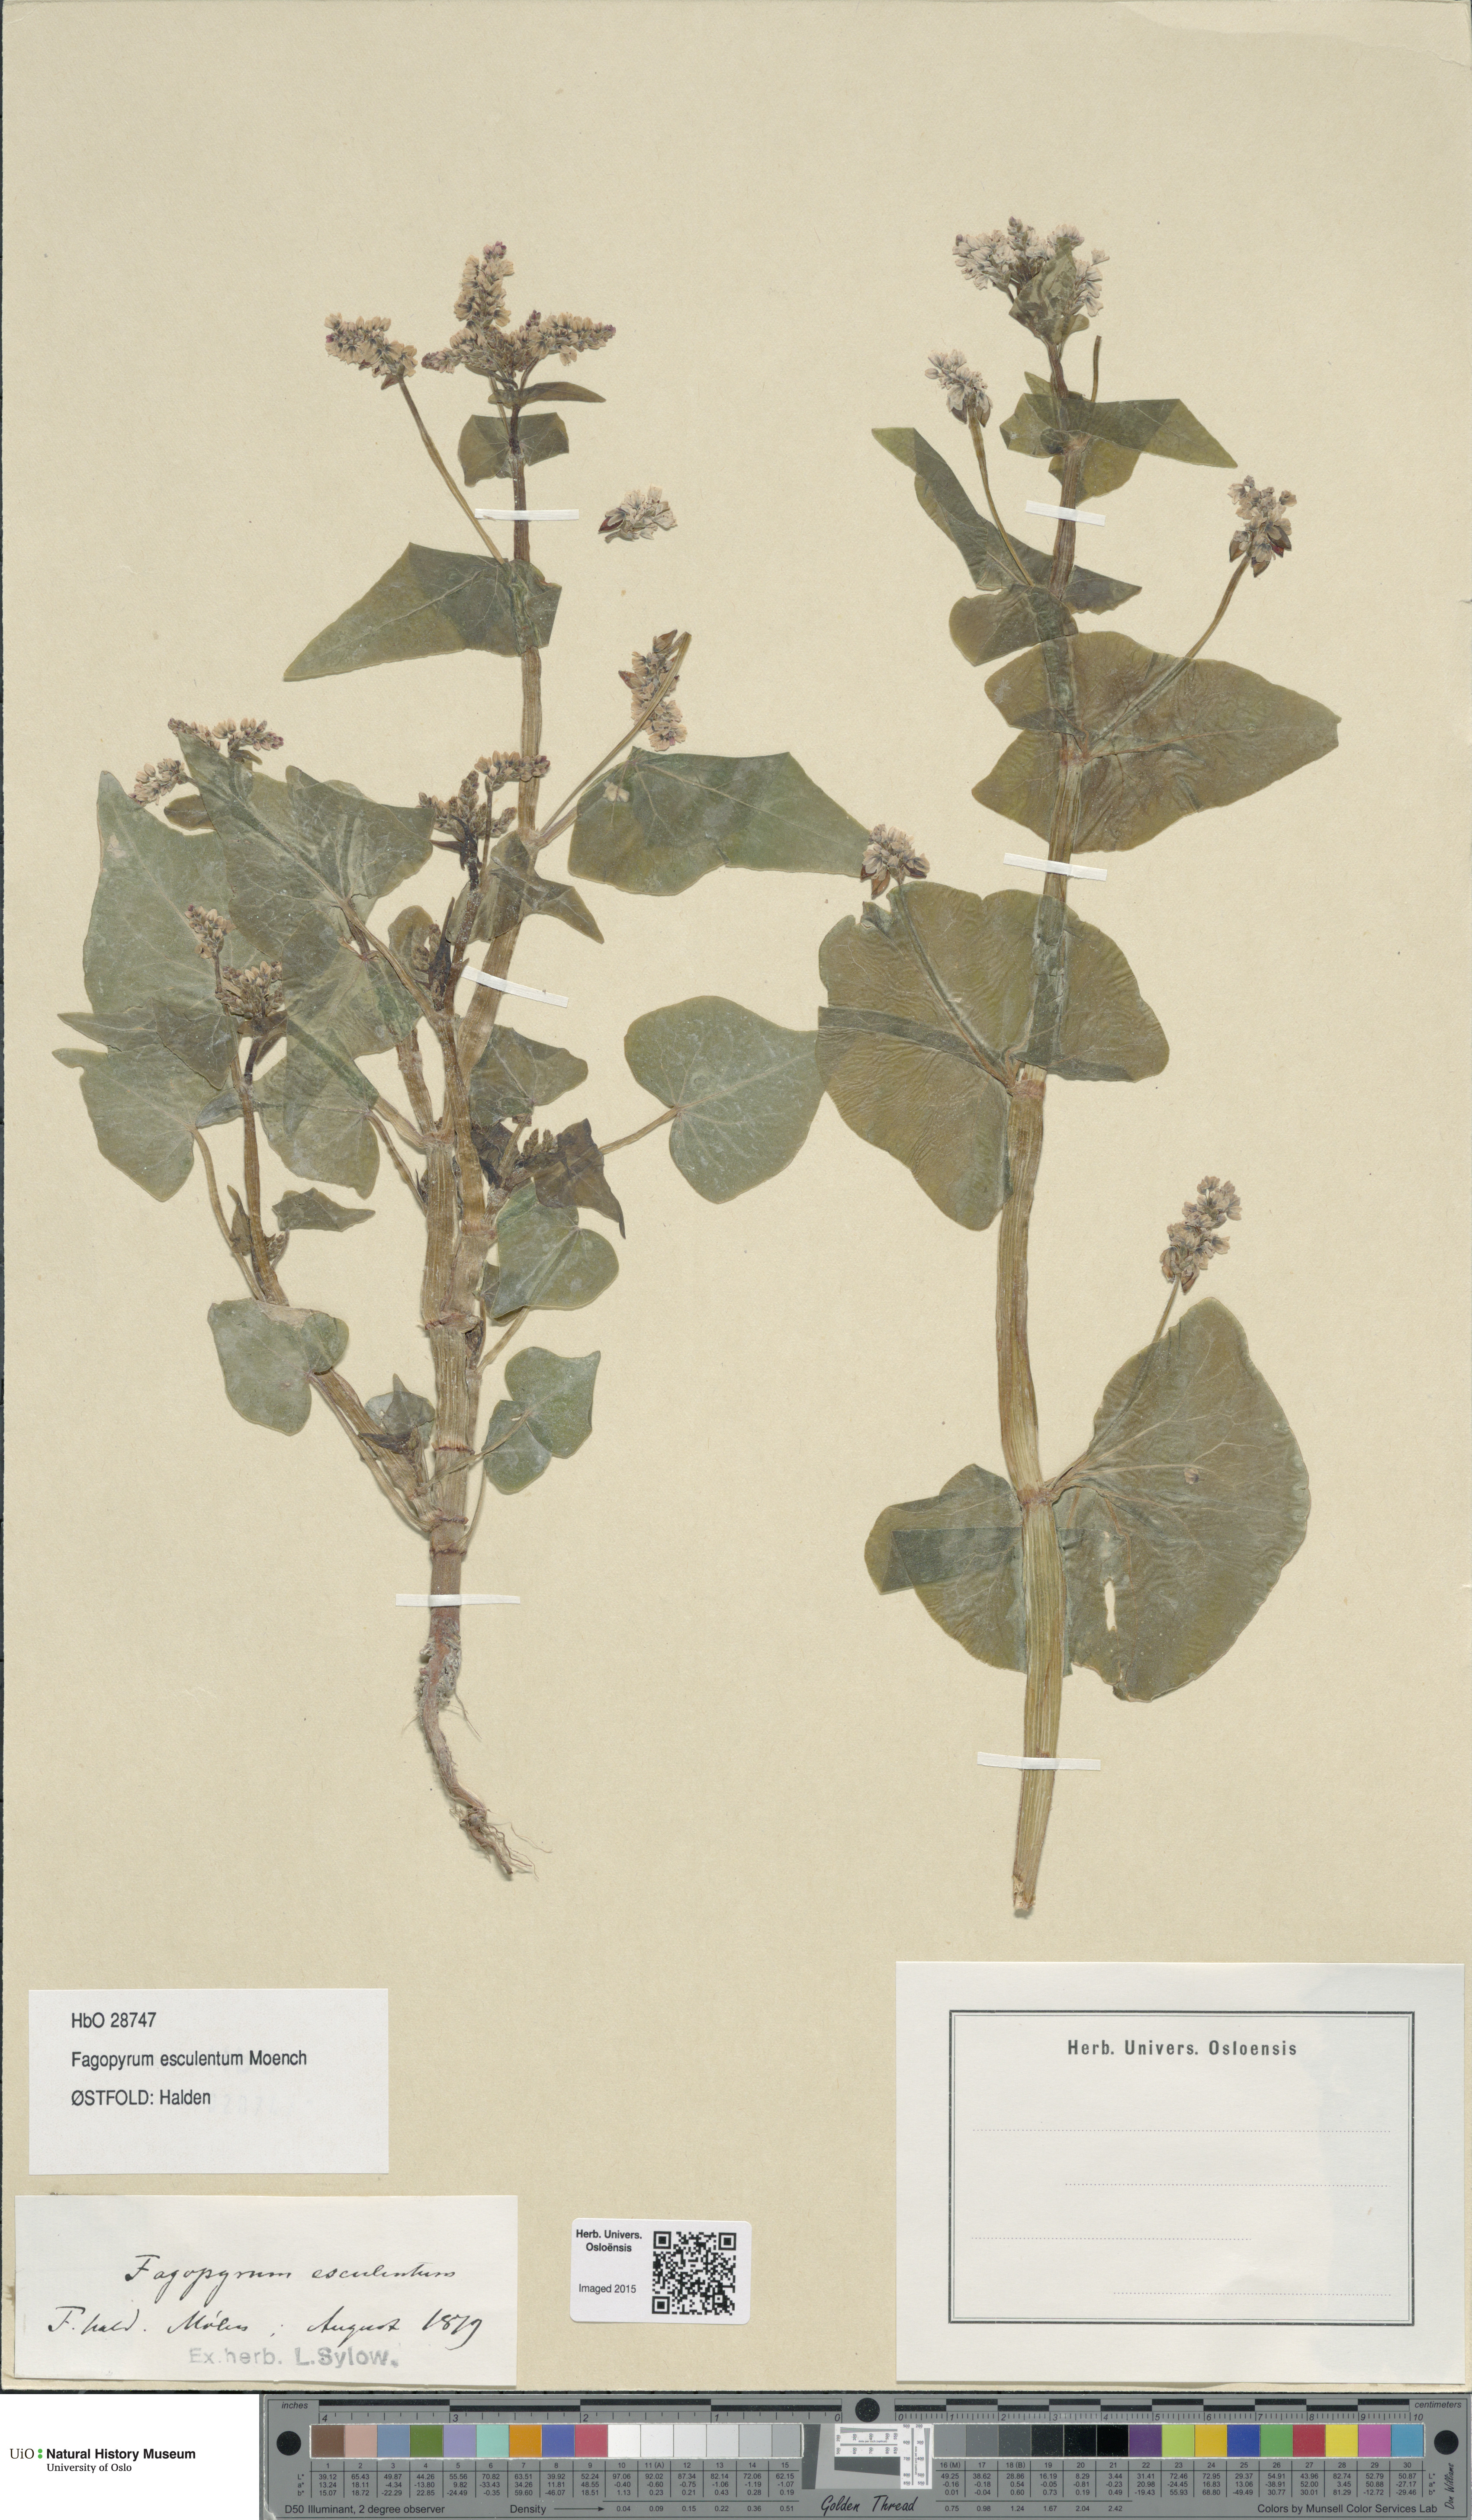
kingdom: Plantae
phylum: Tracheophyta
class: Magnoliopsida
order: Caryophyllales
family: Polygonaceae
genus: Fagopyrum
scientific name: Fagopyrum esculentum
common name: Buckwheat
